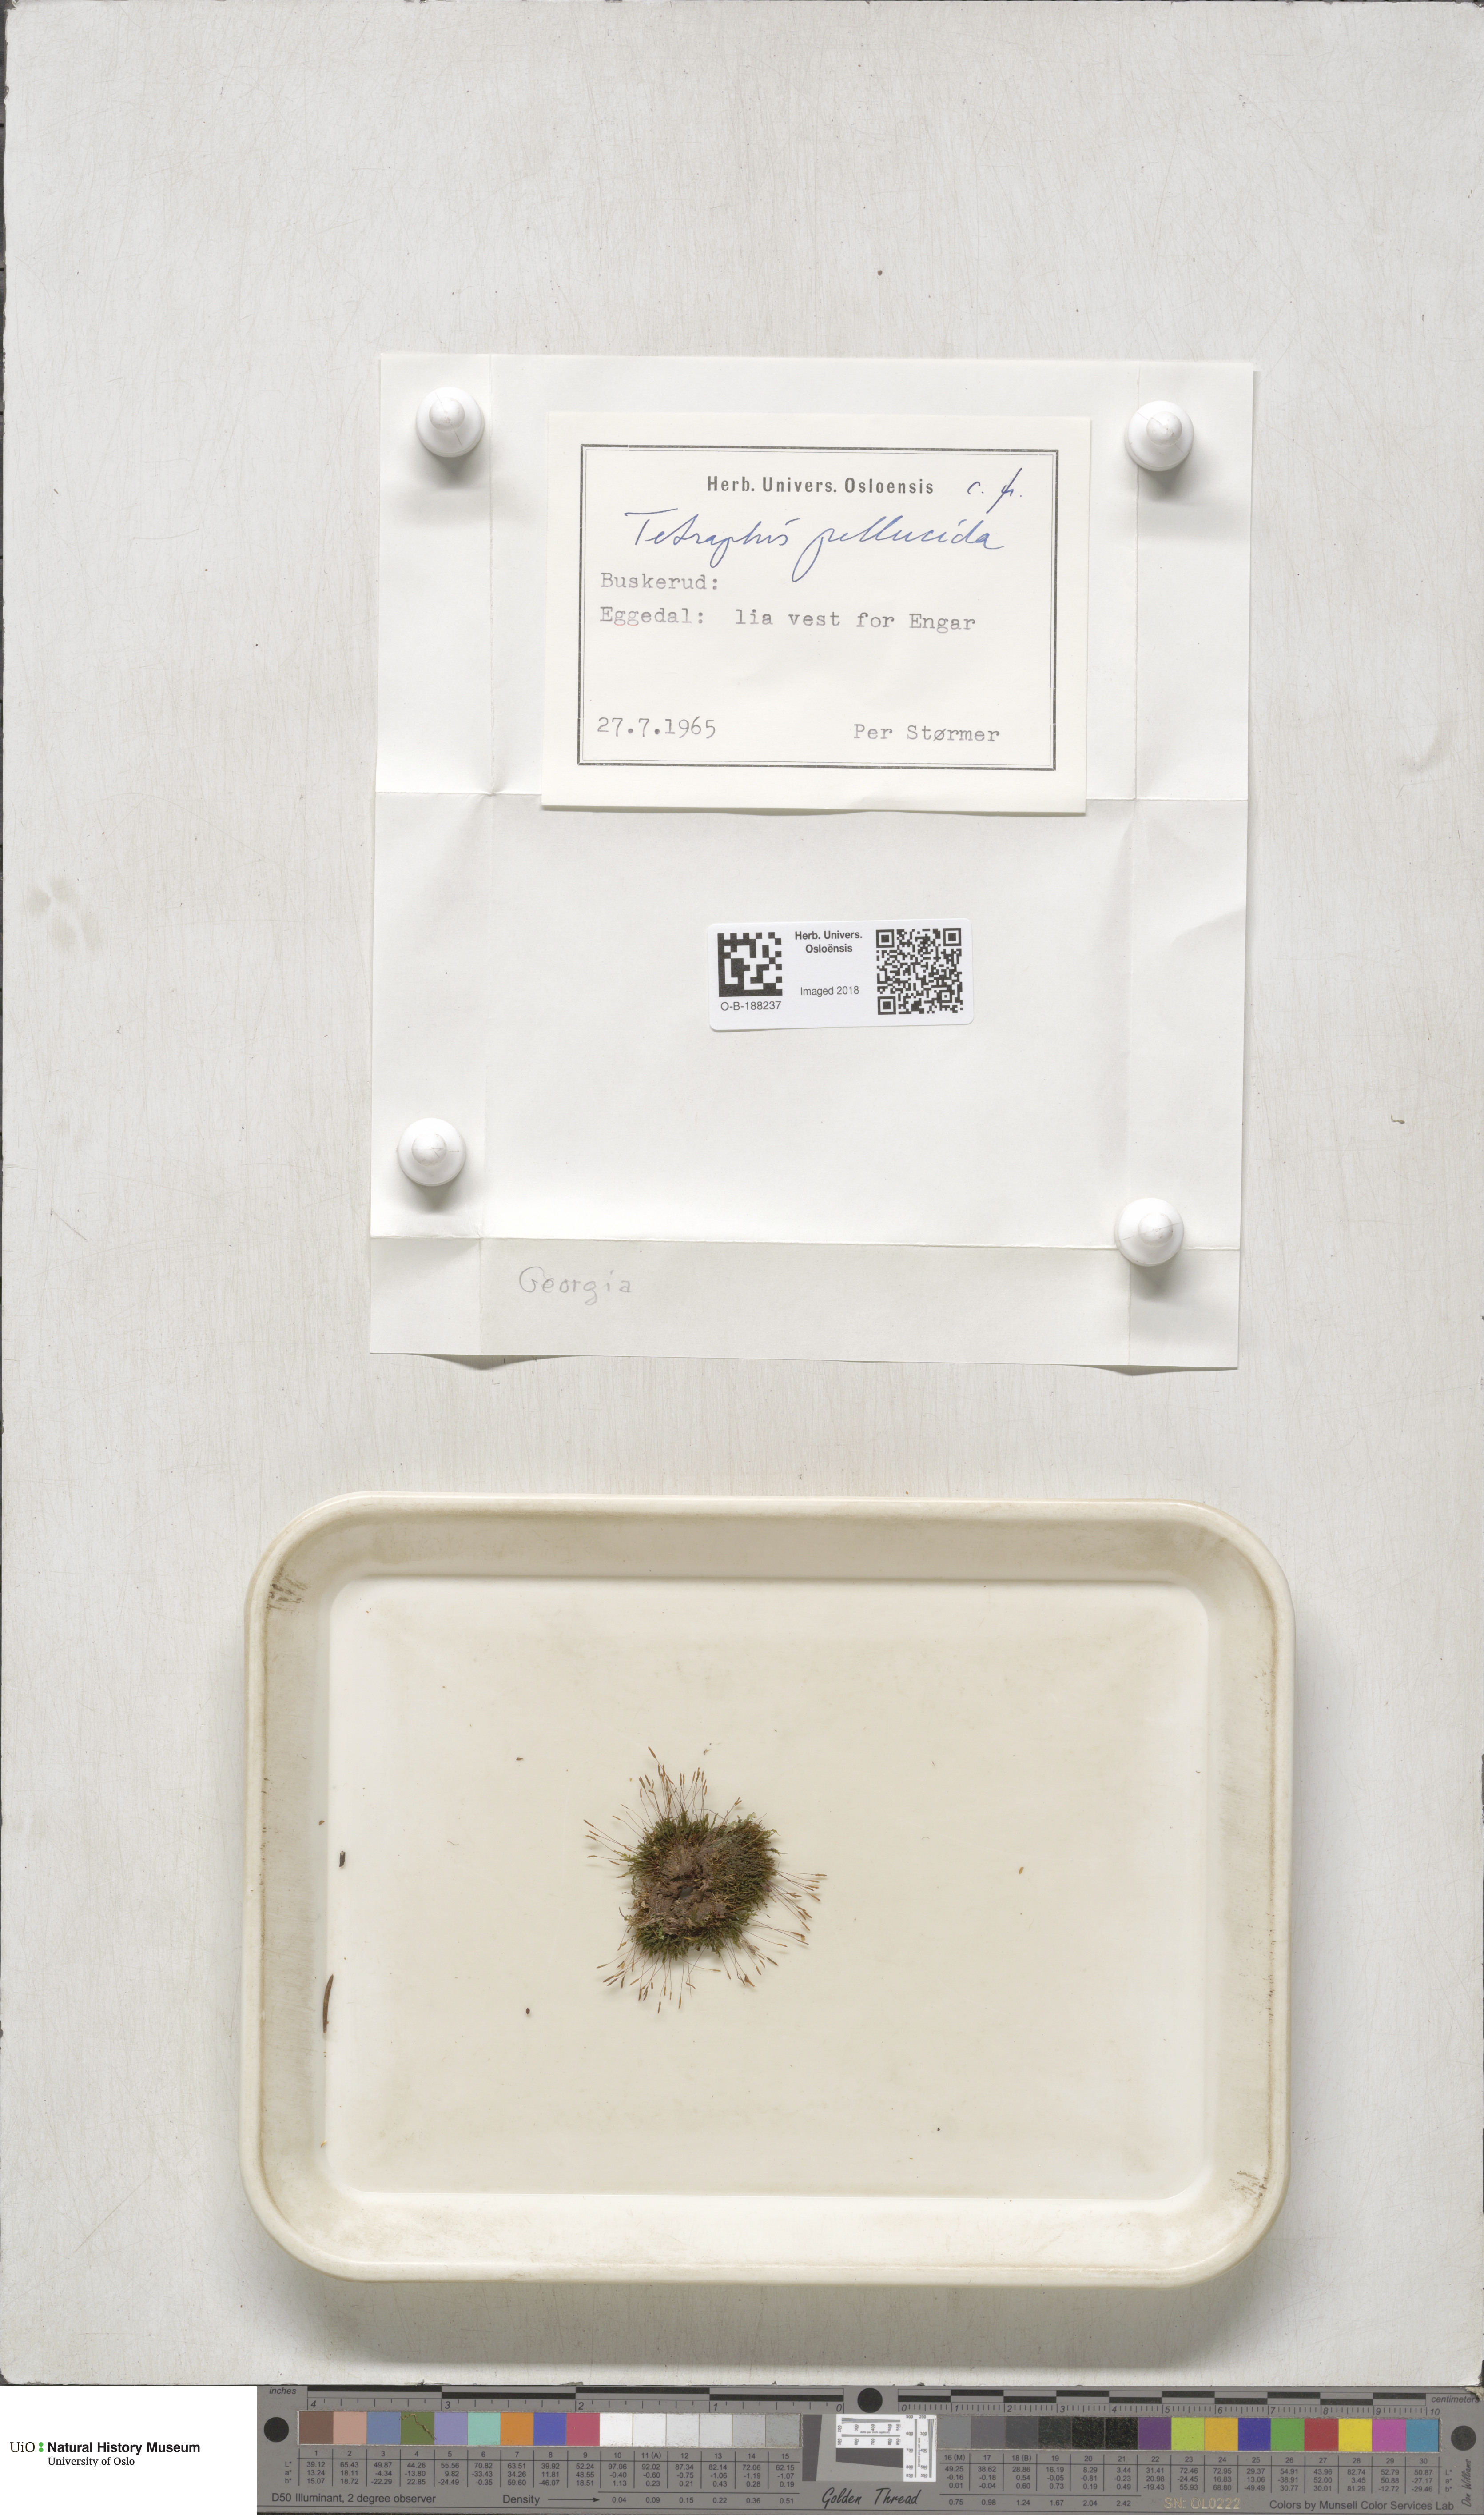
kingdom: Plantae
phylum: Bryophyta
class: Polytrichopsida
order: Tetraphidales
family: Tetraphidaceae
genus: Tetraphis
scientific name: Tetraphis pellucida
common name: Common four-toothed moss
